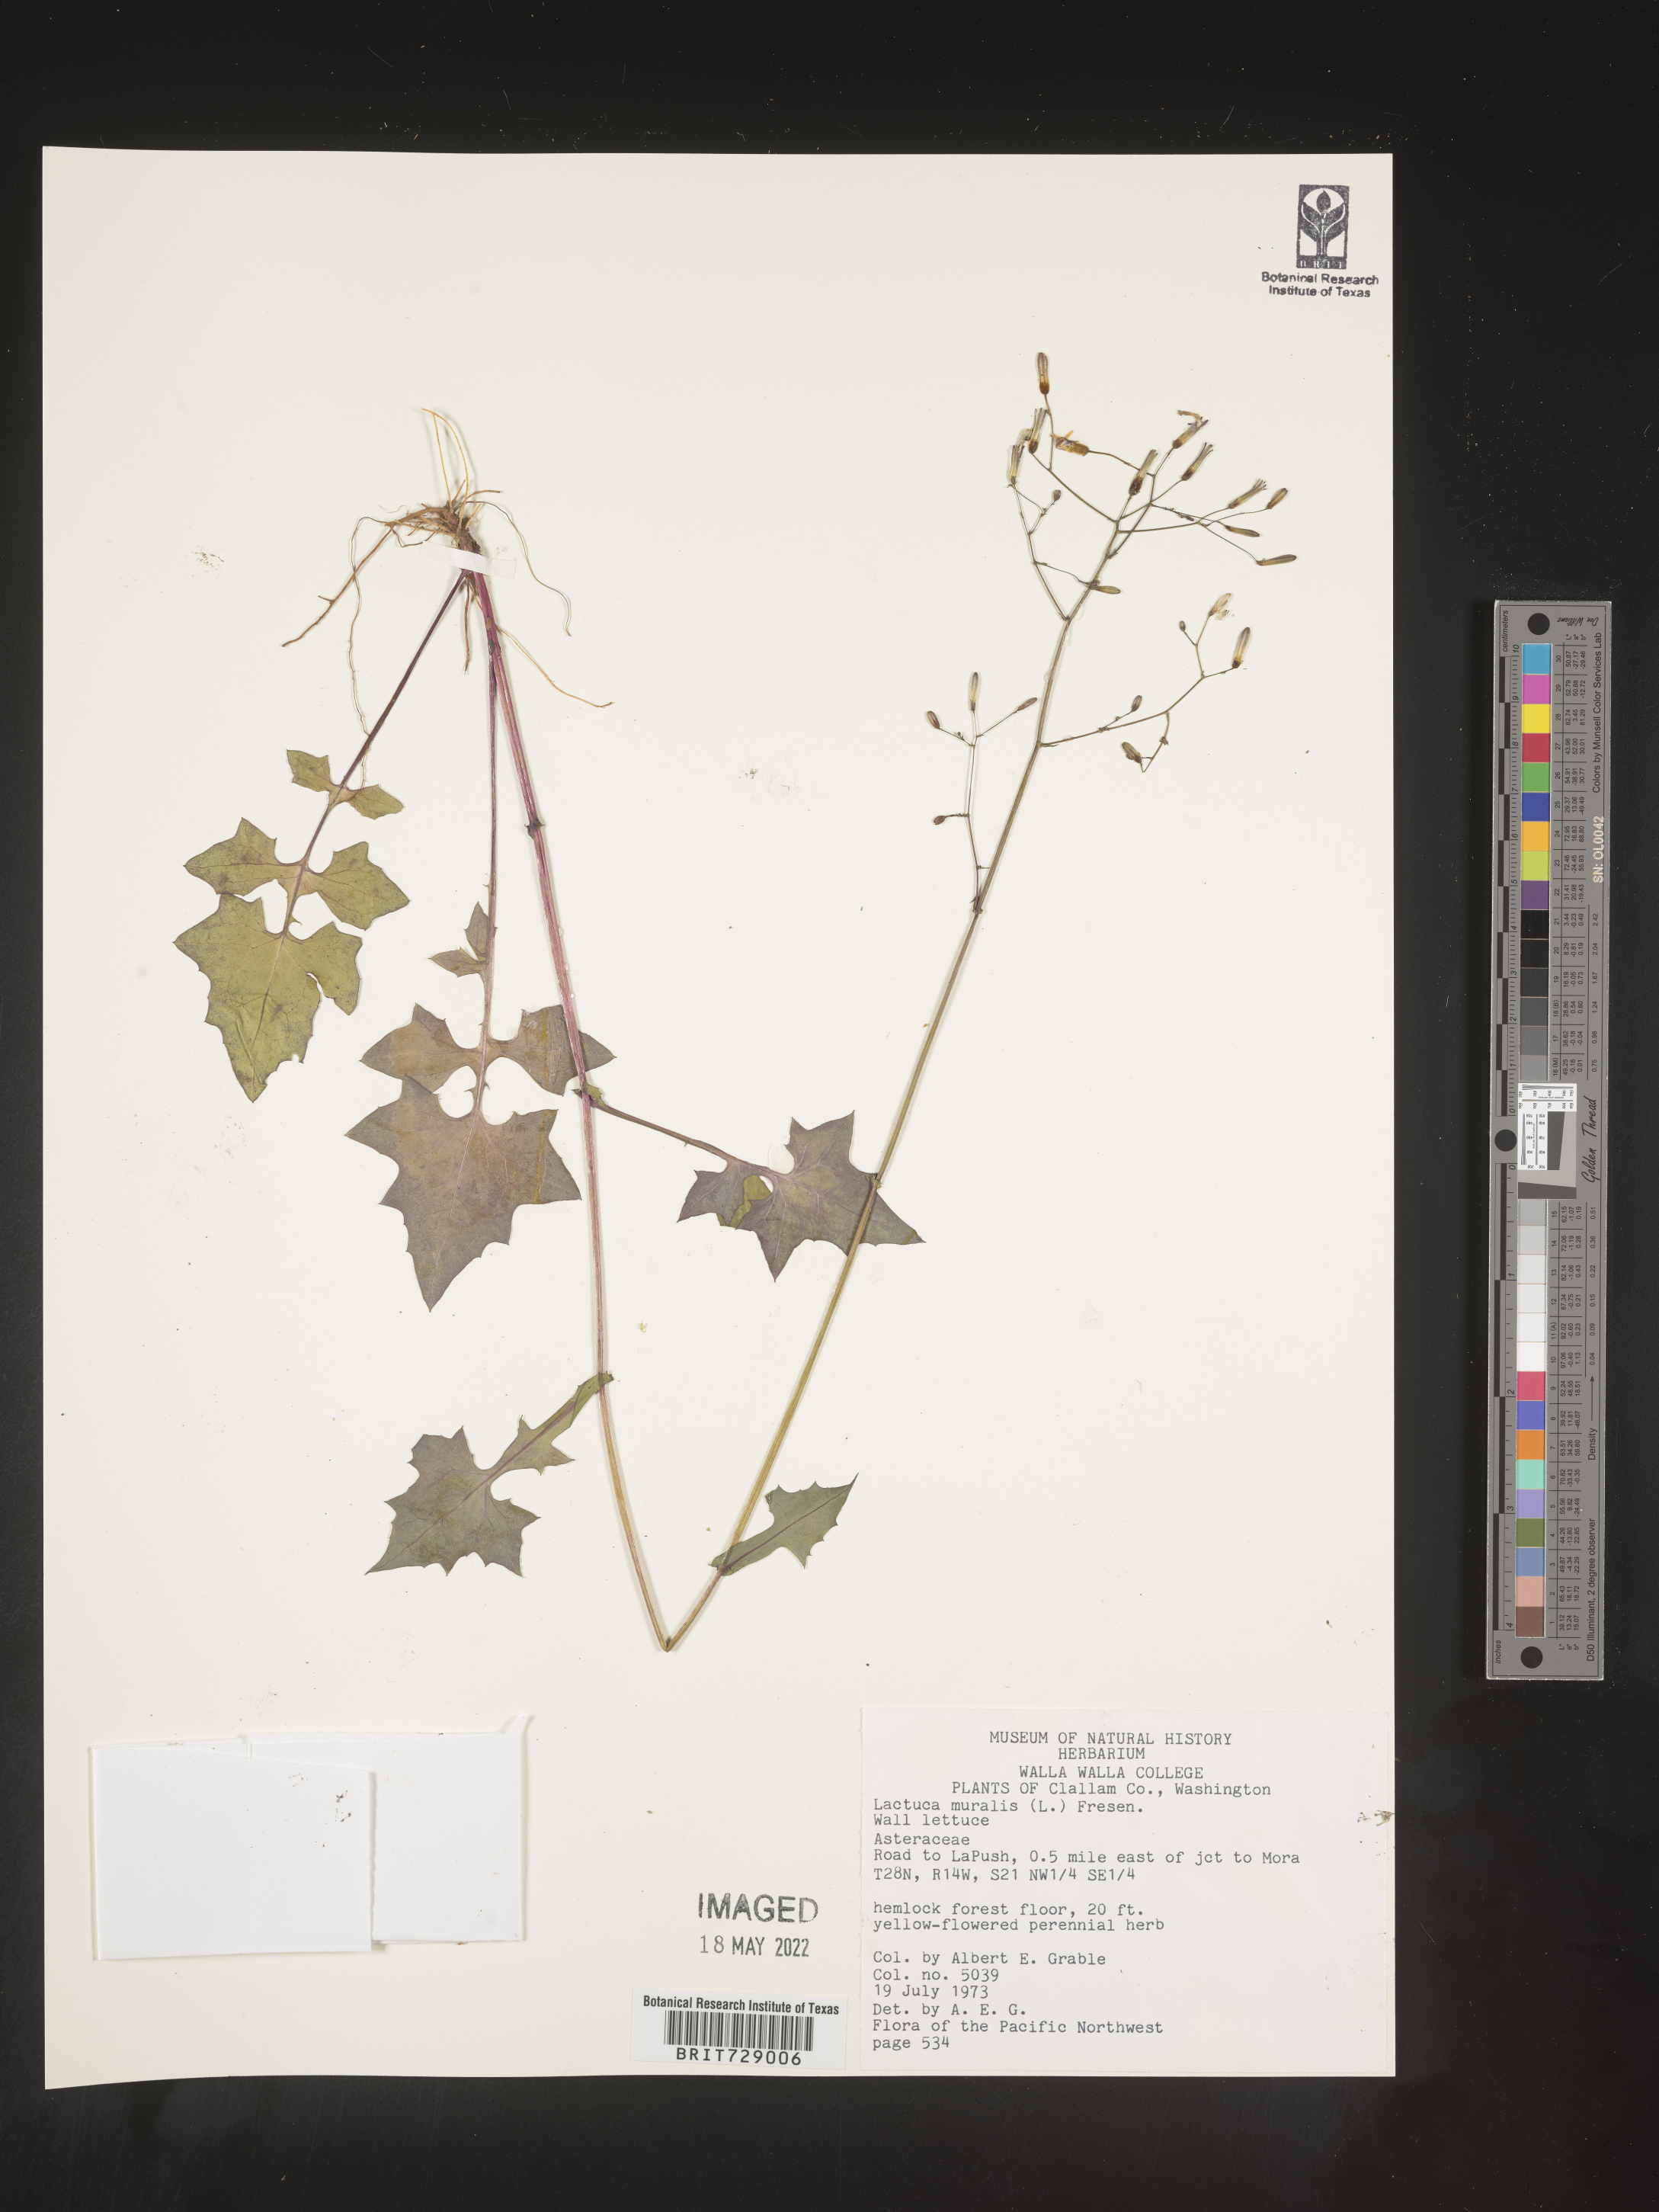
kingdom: Plantae
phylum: Tracheophyta
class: Magnoliopsida
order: Asterales
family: Asteraceae
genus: Lactuca
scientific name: Lactuca
